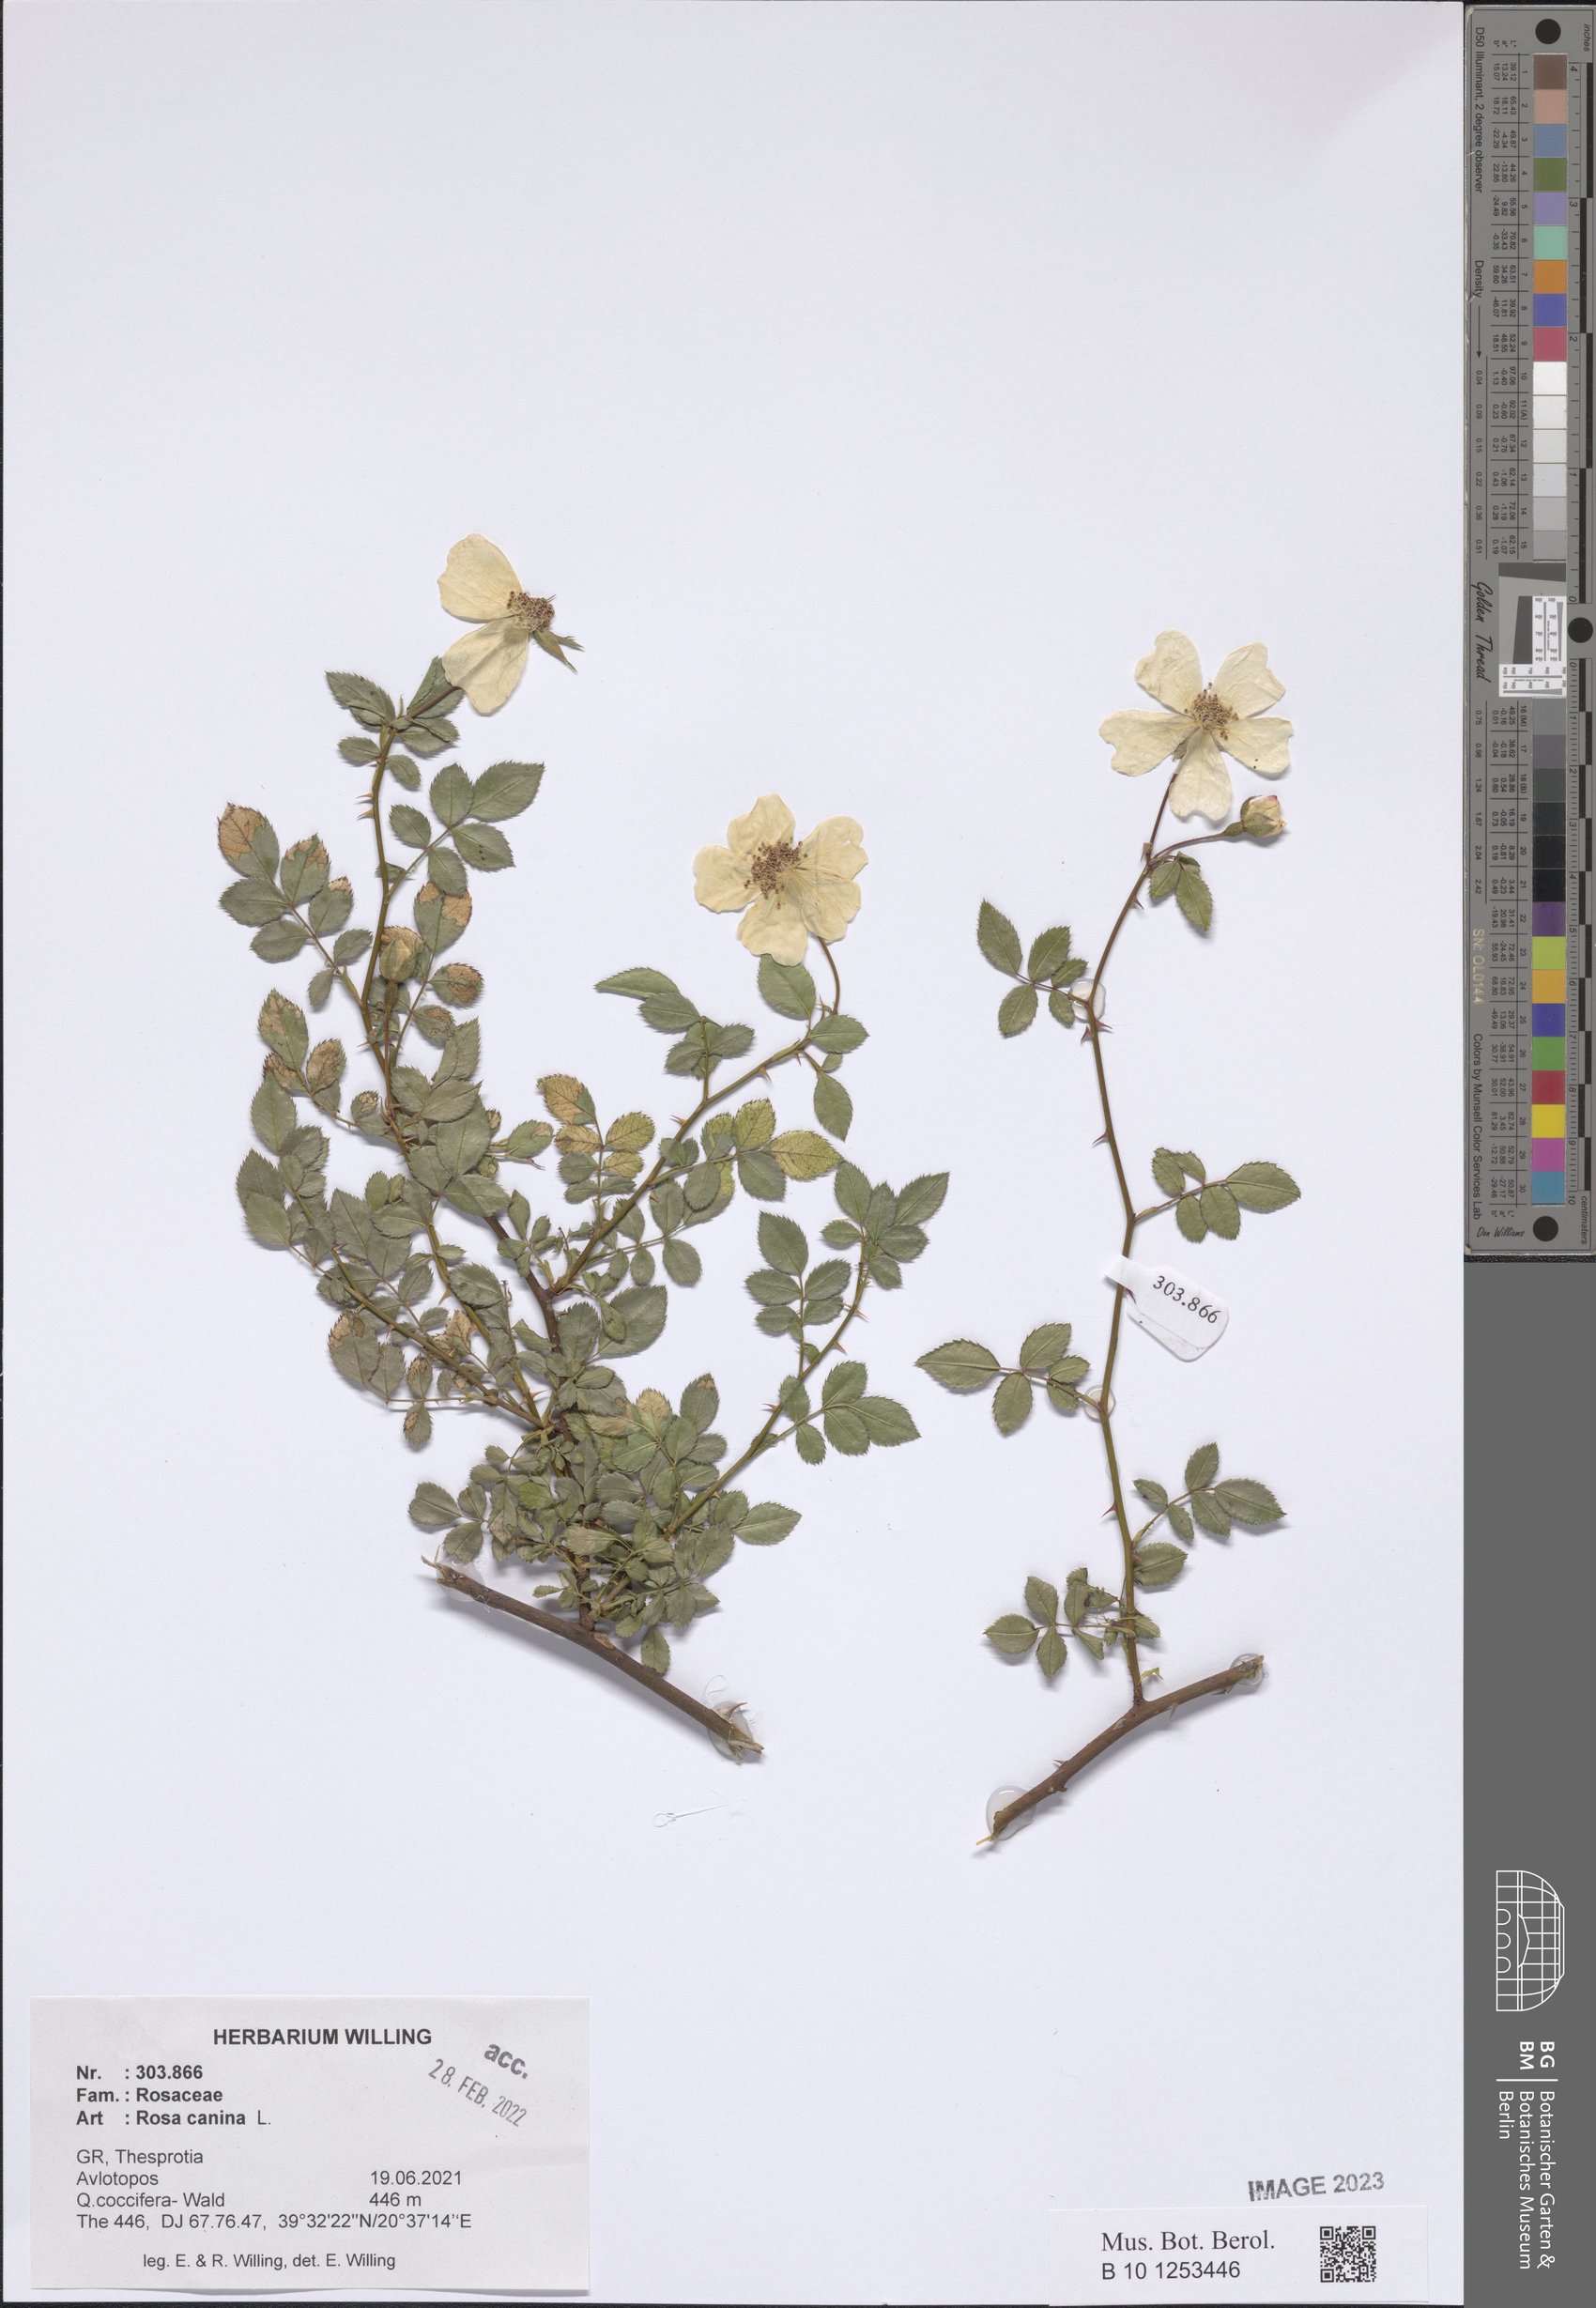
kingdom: Plantae
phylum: Tracheophyta
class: Magnoliopsida
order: Rosales
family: Rosaceae
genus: Rosa
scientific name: Rosa canina
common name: Dog rose
